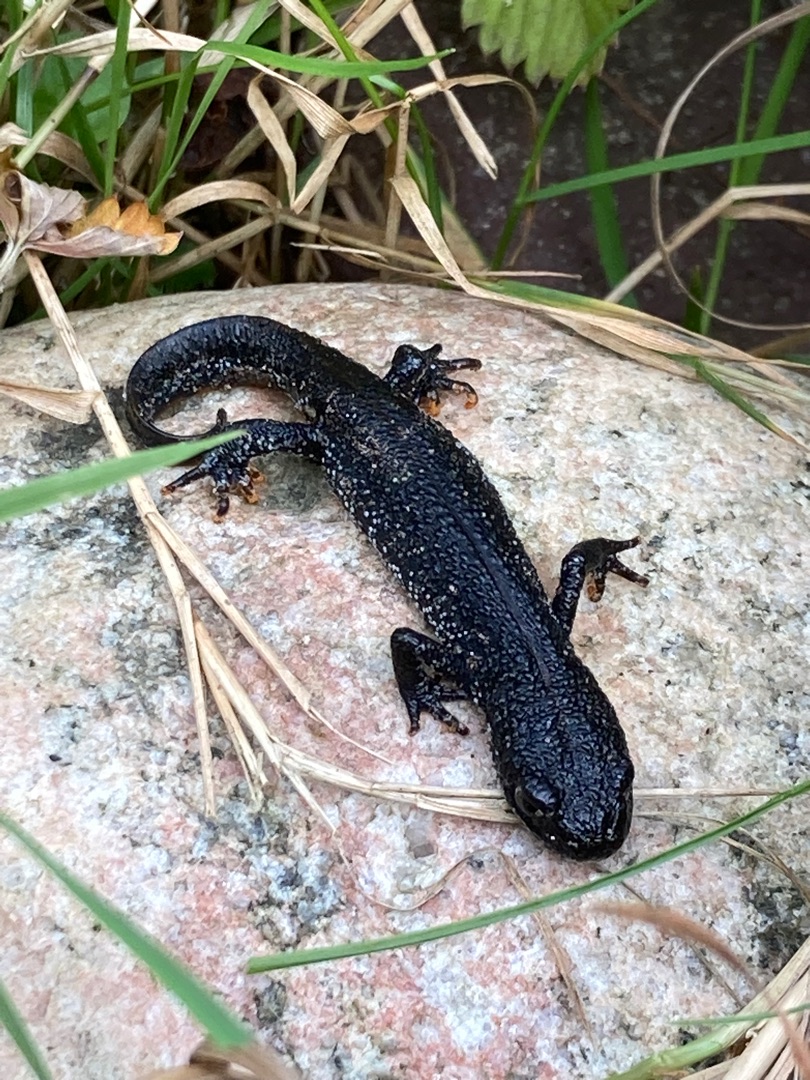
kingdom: Animalia
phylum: Chordata
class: Amphibia
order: Caudata
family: Salamandridae
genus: Triturus
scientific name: Triturus cristatus
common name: Stor vandsalamander
